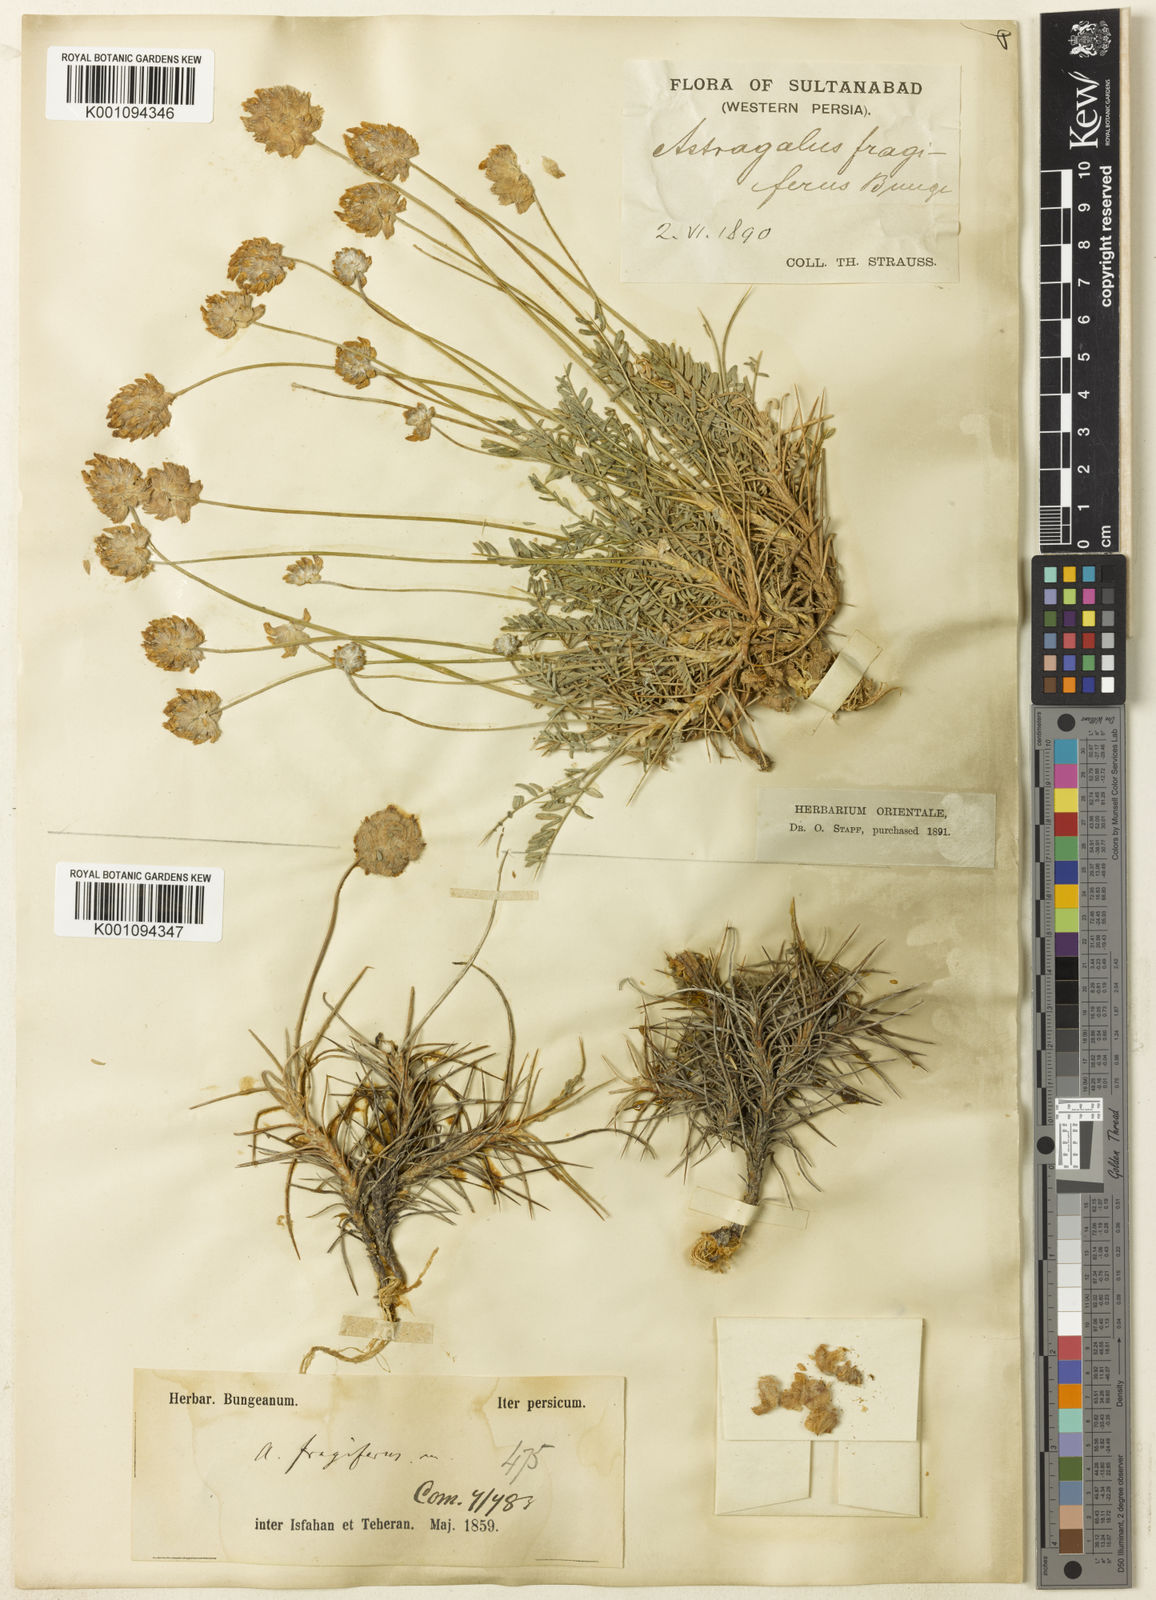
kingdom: Plantae
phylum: Tracheophyta
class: Magnoliopsida
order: Fabales
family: Fabaceae
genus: Astragalus
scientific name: Astragalus
